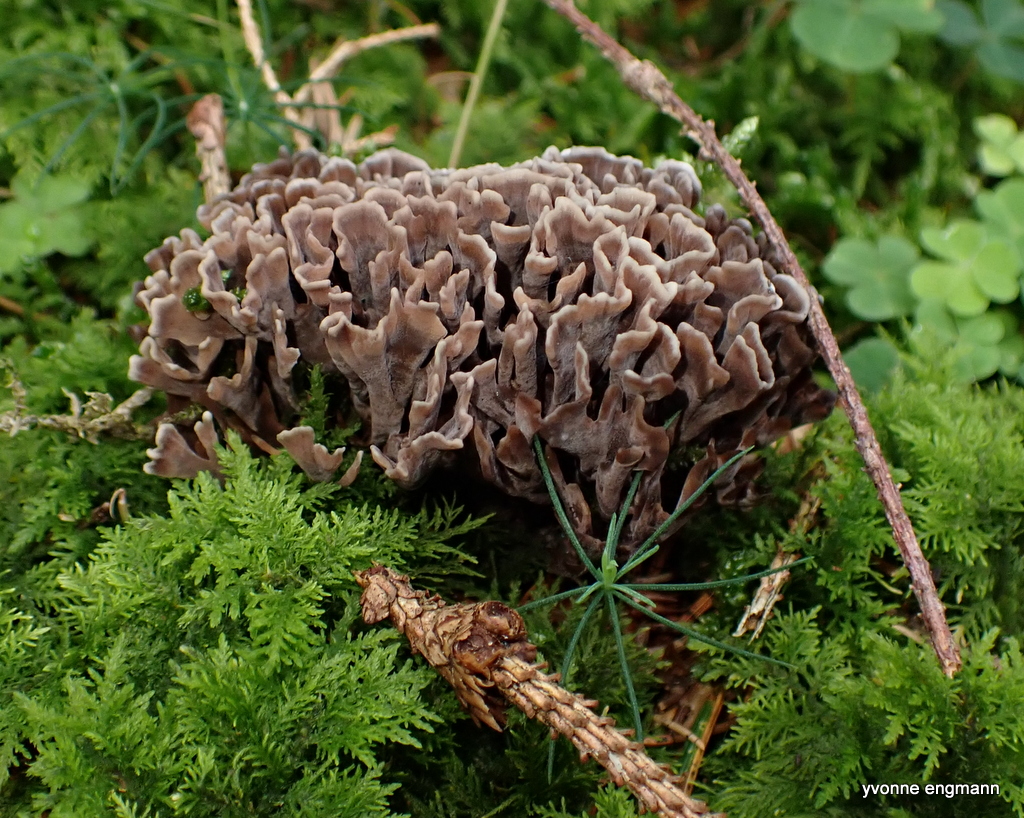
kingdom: Fungi
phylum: Basidiomycota
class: Agaricomycetes
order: Thelephorales
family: Thelephoraceae
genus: Thelephora
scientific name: Thelephora palmata
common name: grenet frynsesvamp
